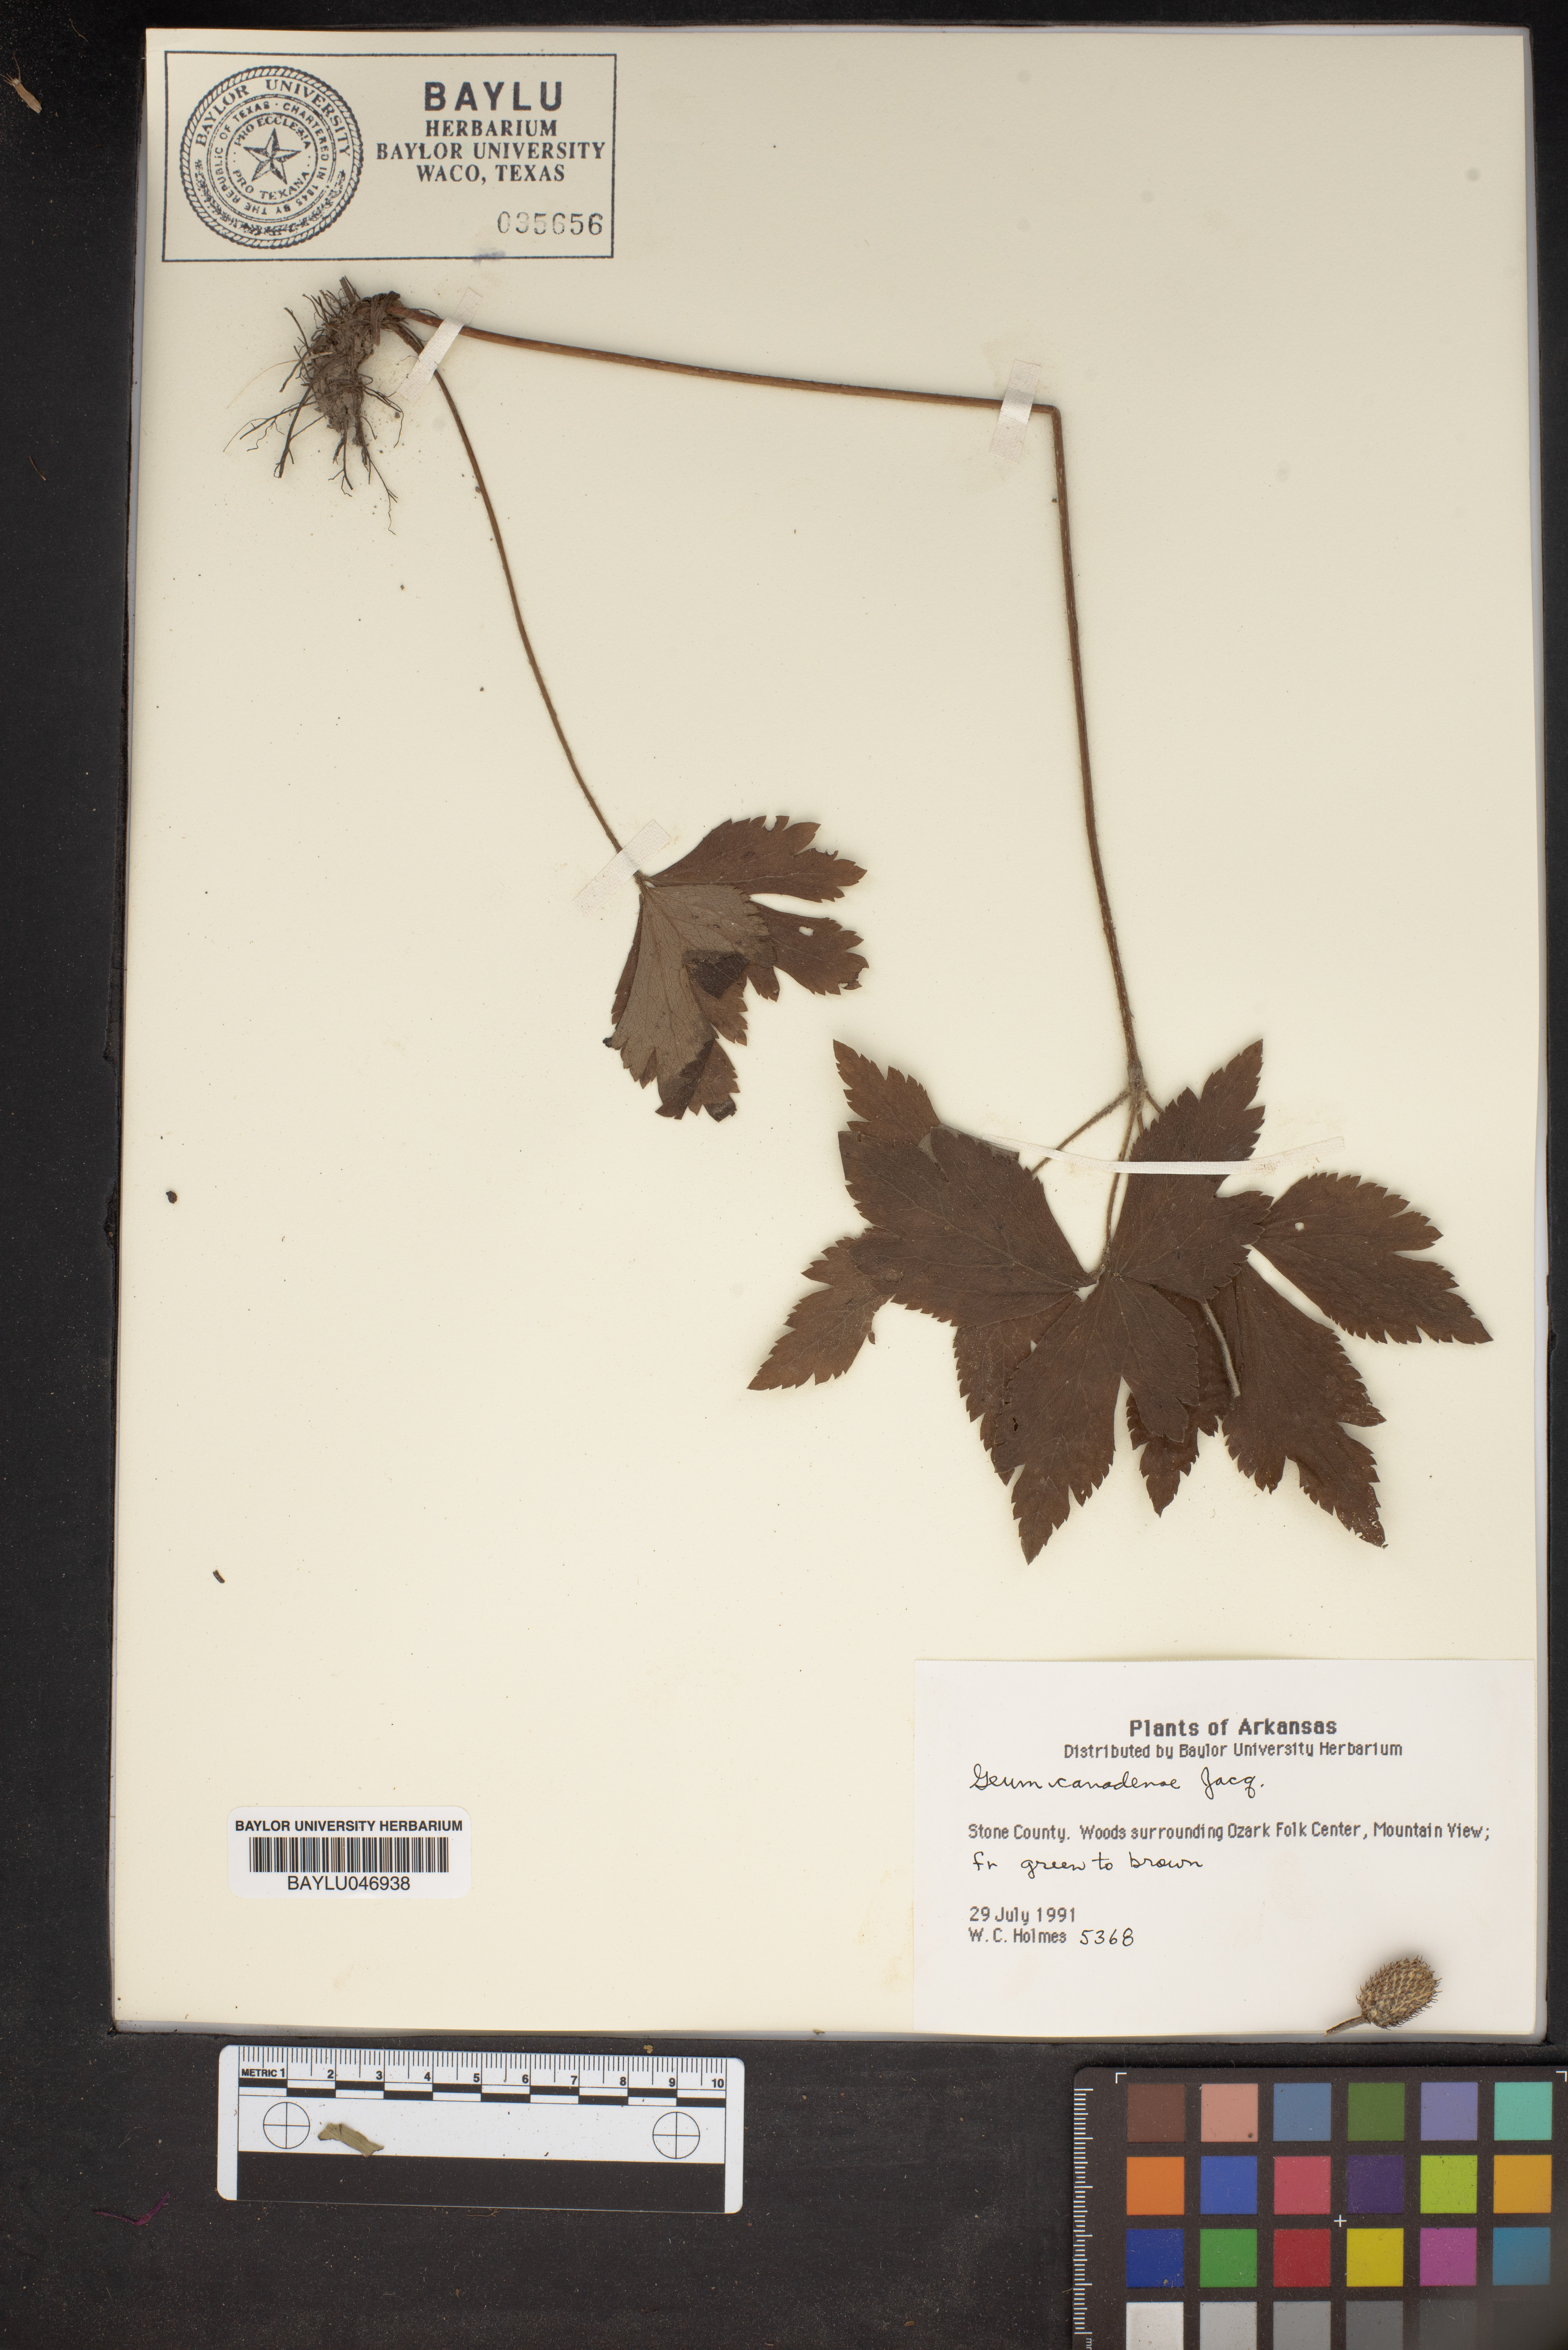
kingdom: Plantae
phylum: Tracheophyta
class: Magnoliopsida
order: Rosales
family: Rosaceae
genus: Geum
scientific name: Geum canadense
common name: White avens
